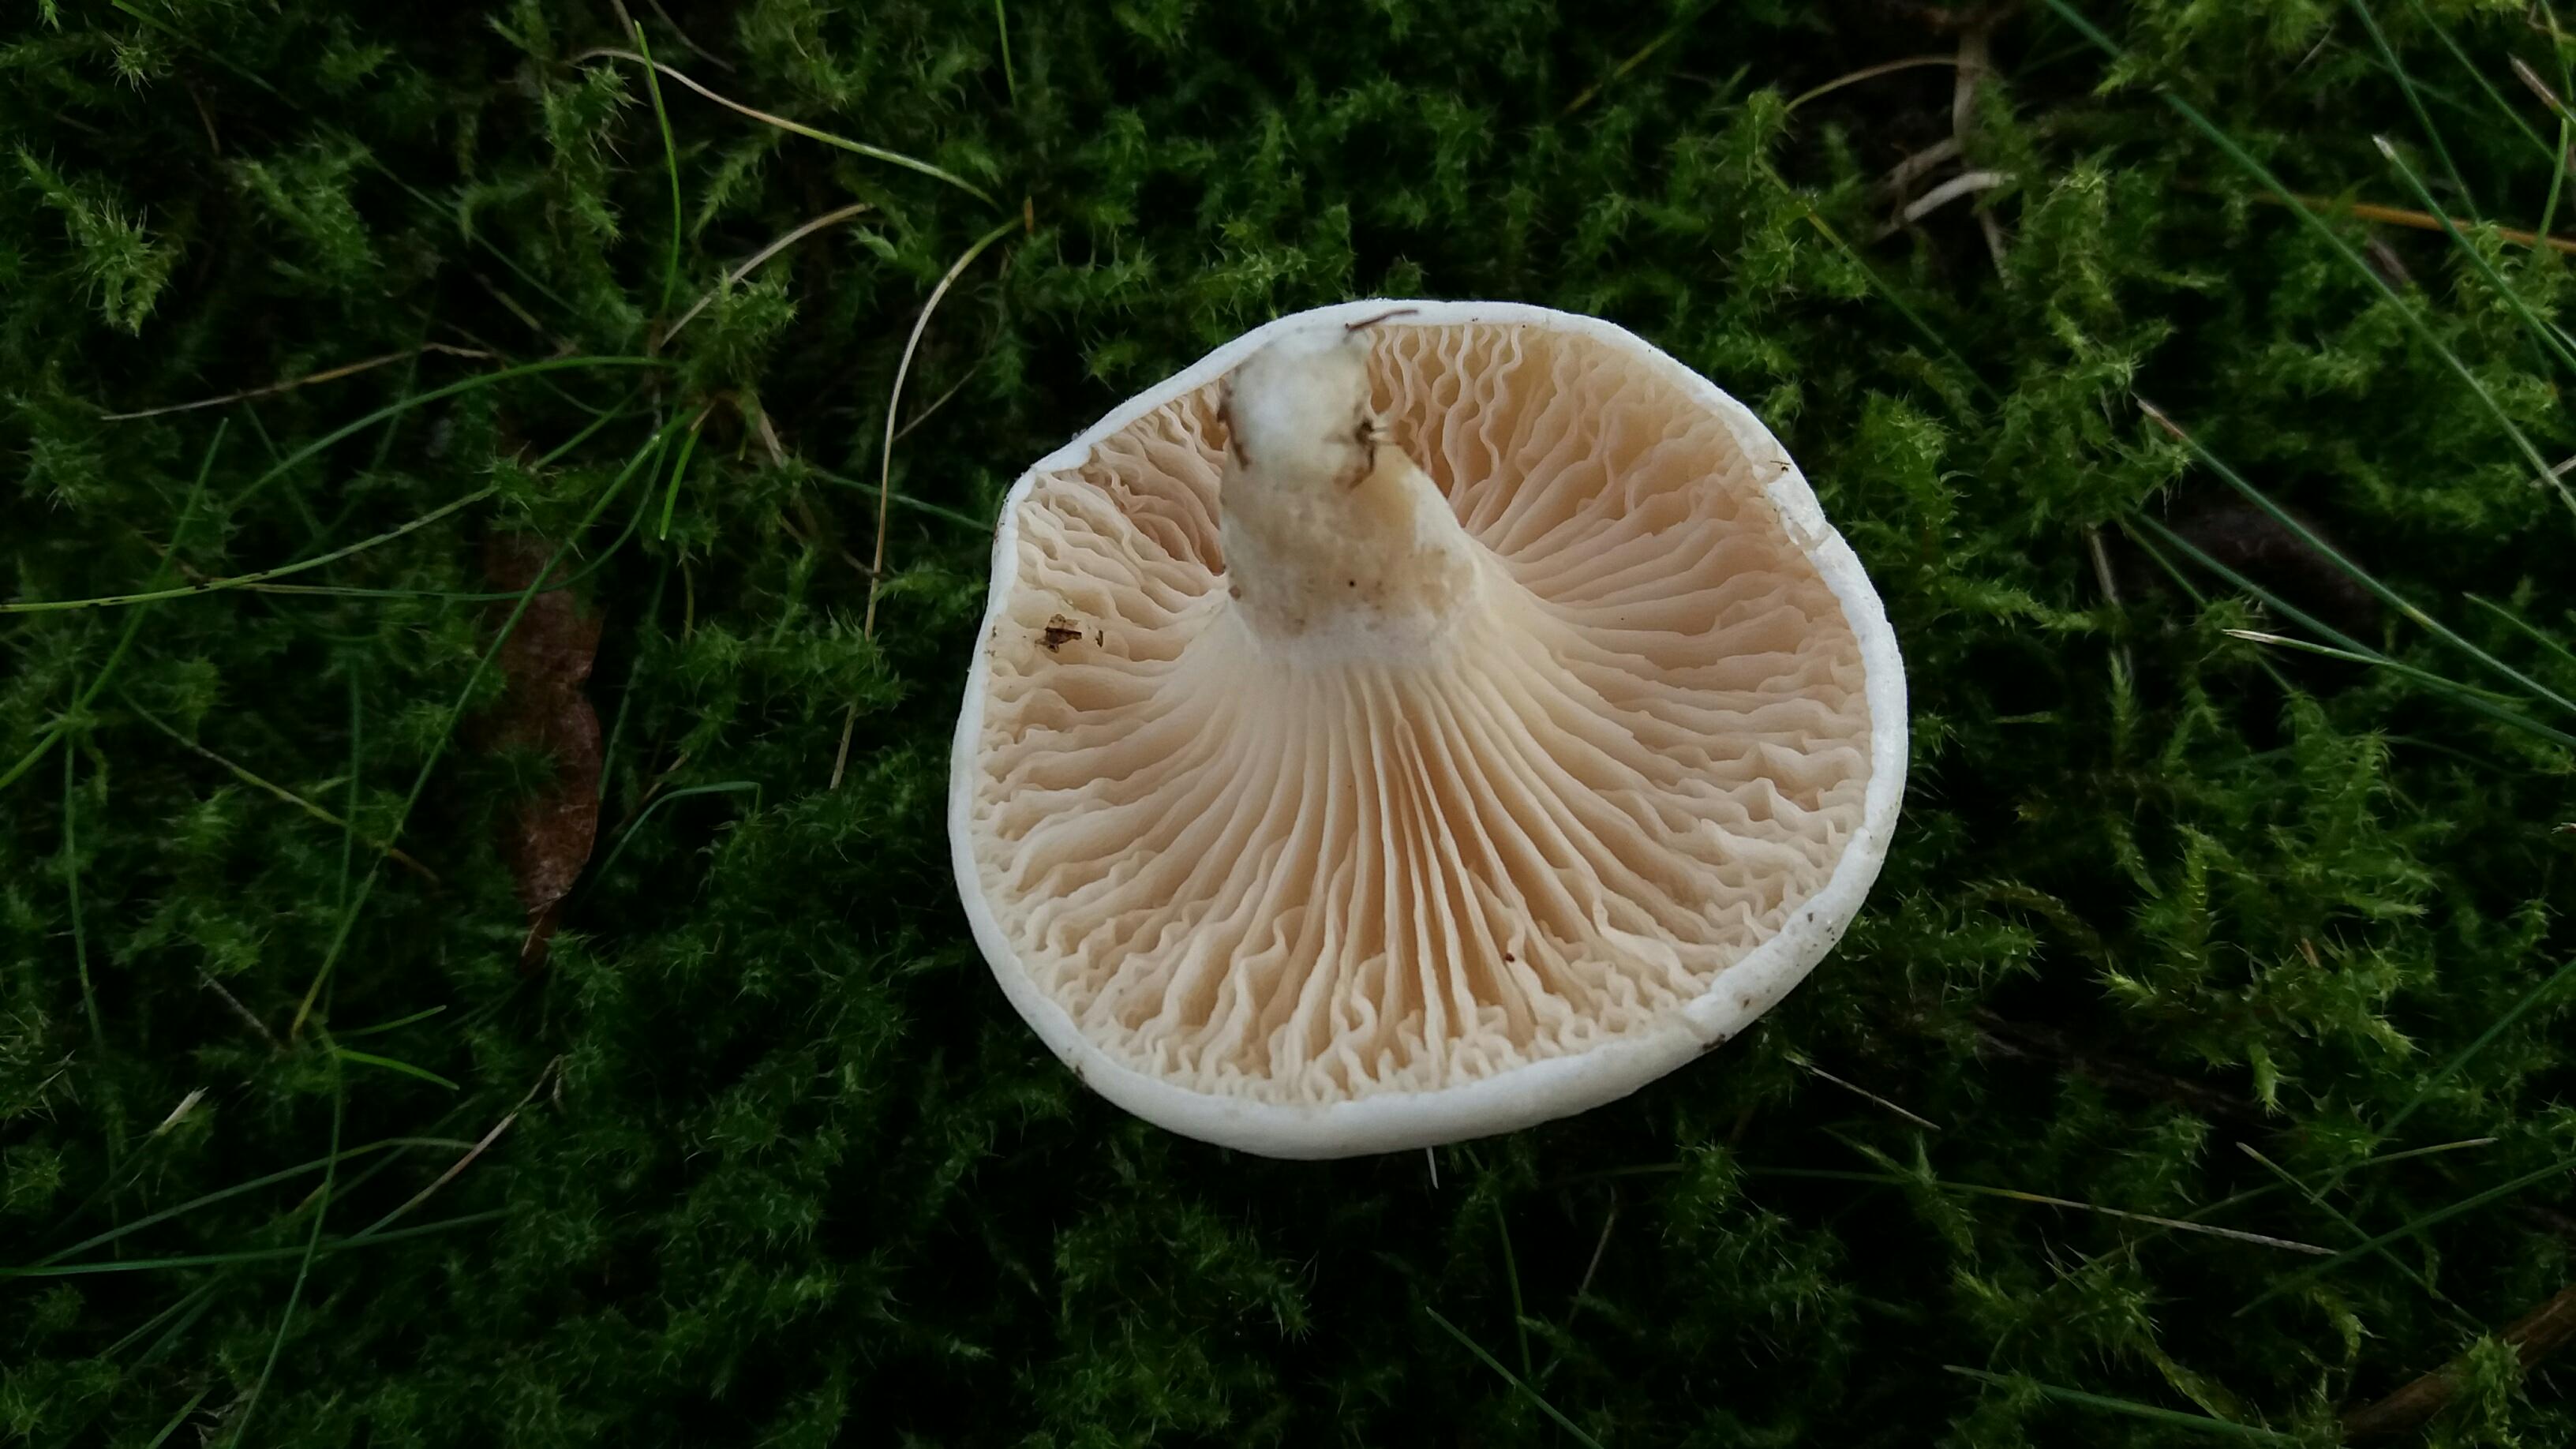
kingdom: Fungi
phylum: Basidiomycota
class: Agaricomycetes
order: Agaricales
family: Entolomataceae
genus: Clitopilus
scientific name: Clitopilus prunulus
